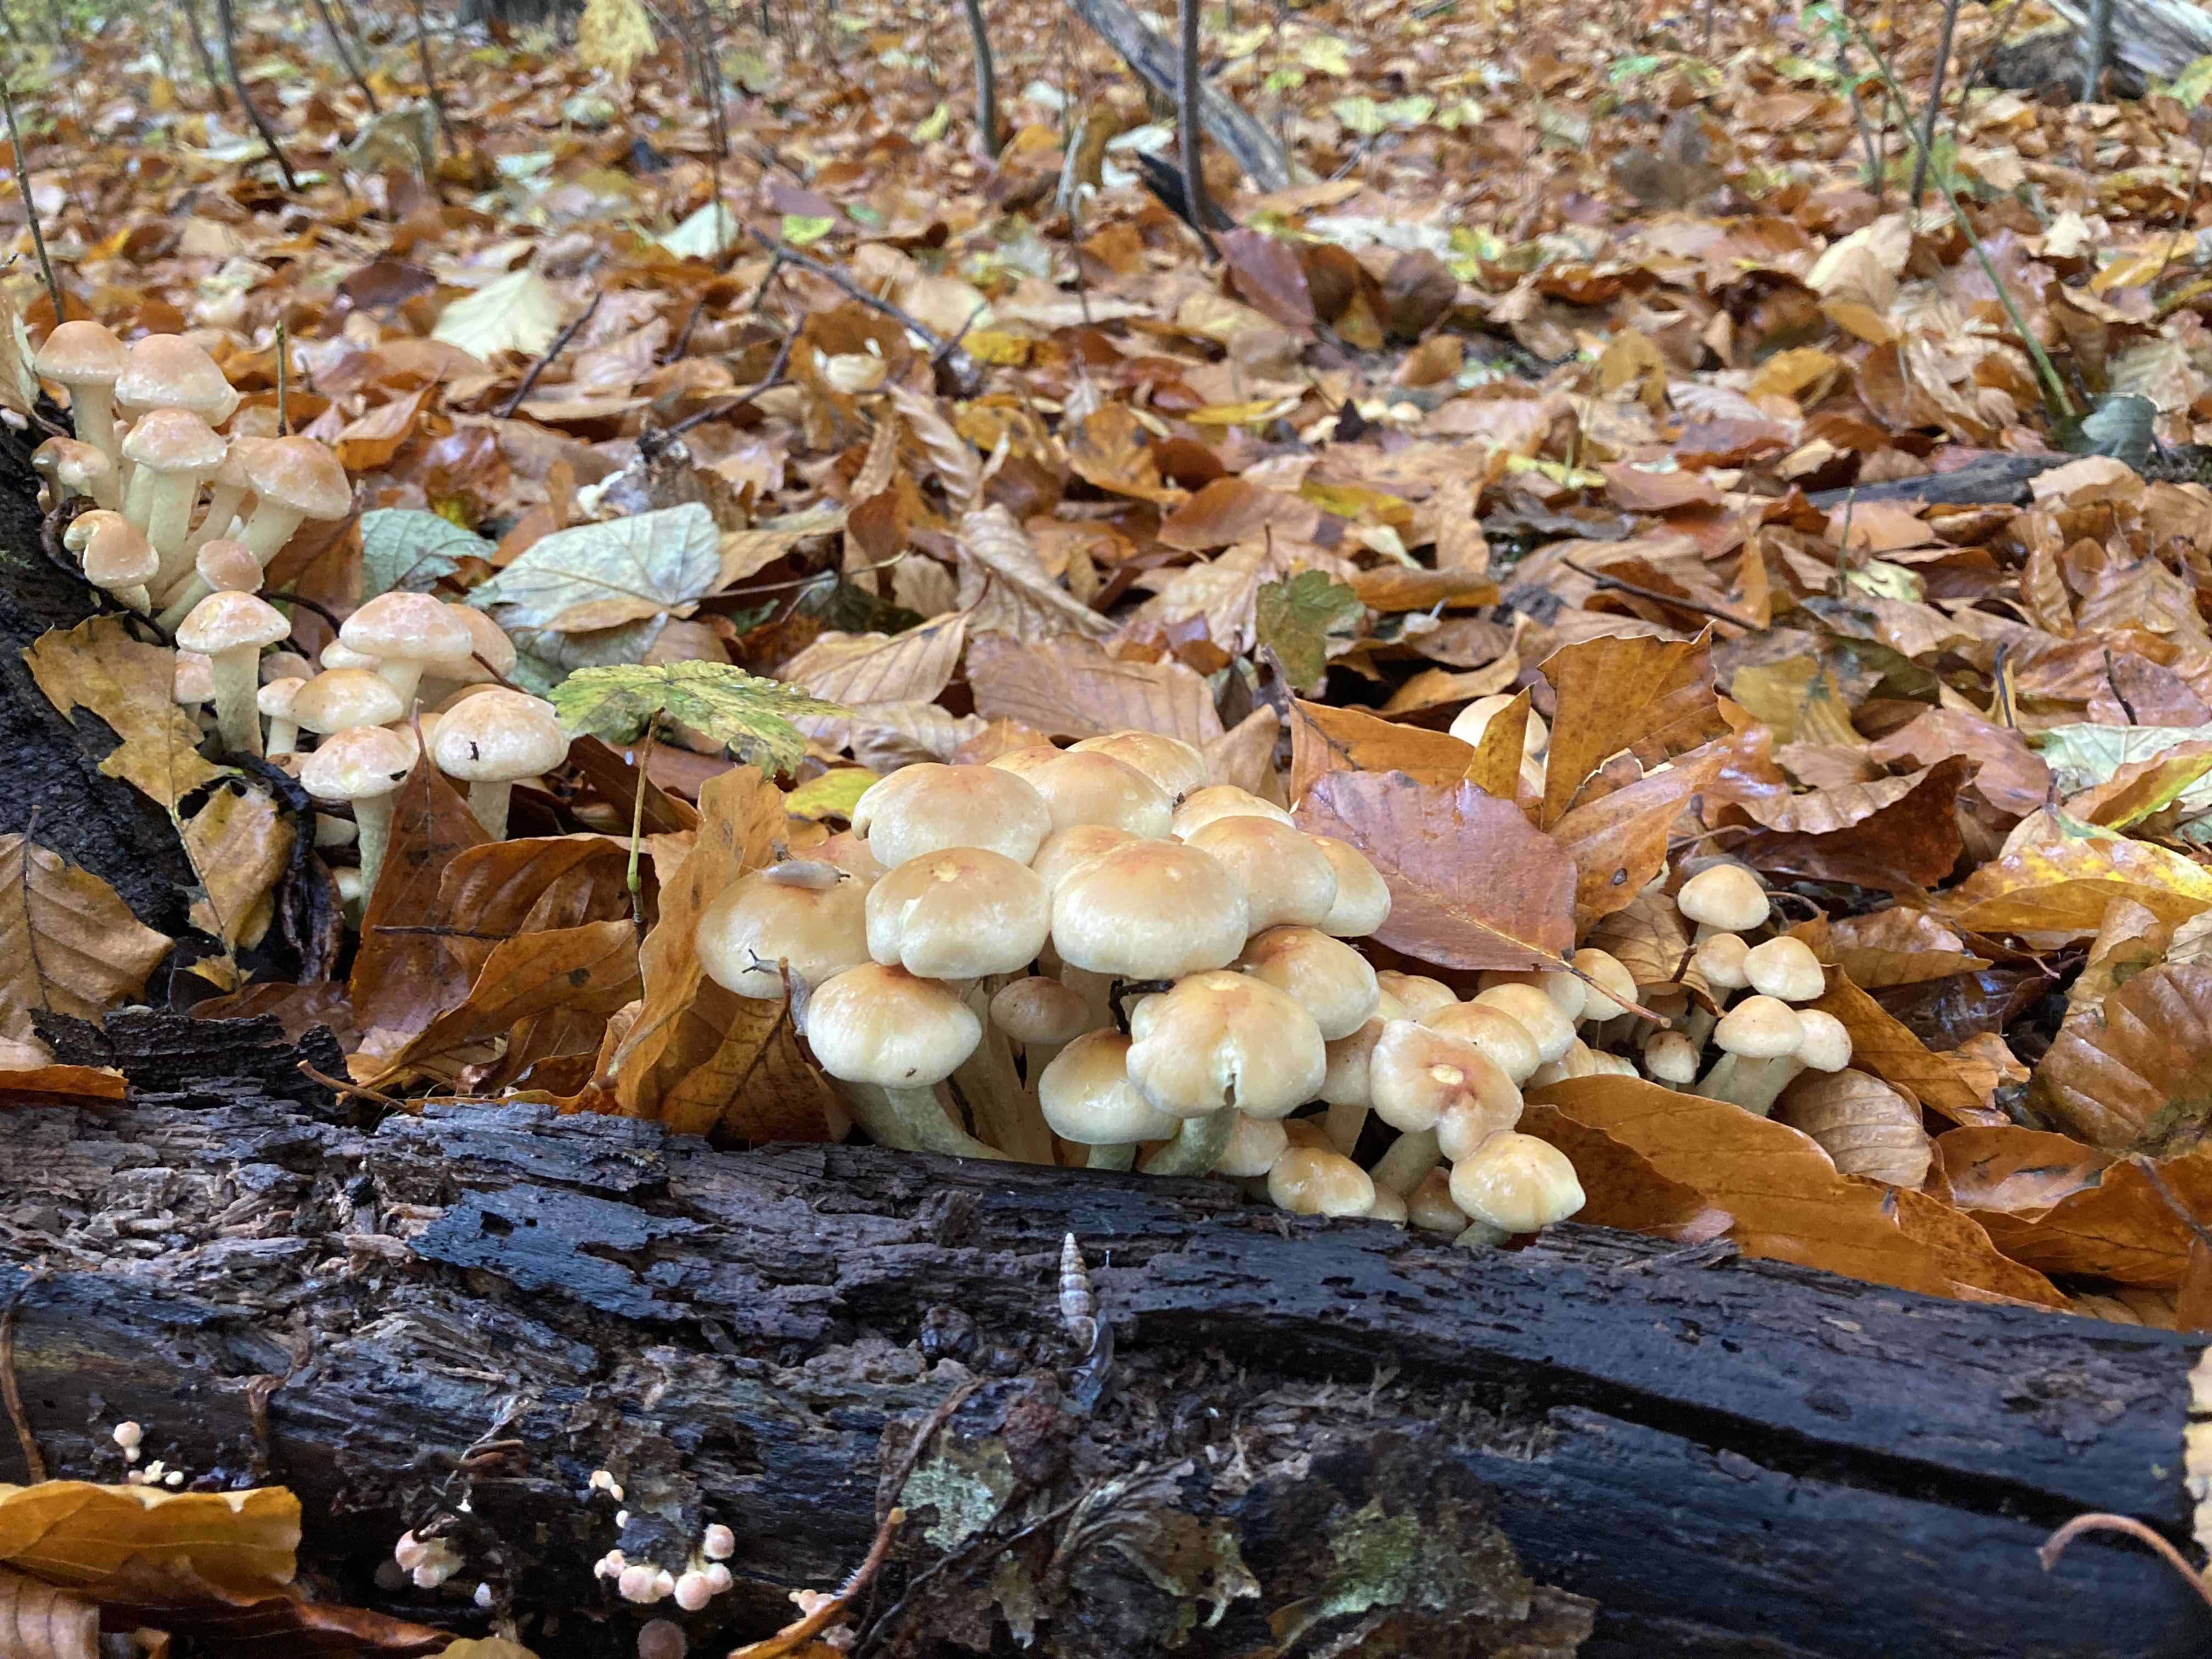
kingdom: Fungi
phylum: Basidiomycota
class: Agaricomycetes
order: Agaricales
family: Strophariaceae
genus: Hypholoma
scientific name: Hypholoma lateritium
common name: teglrød svovlhat
